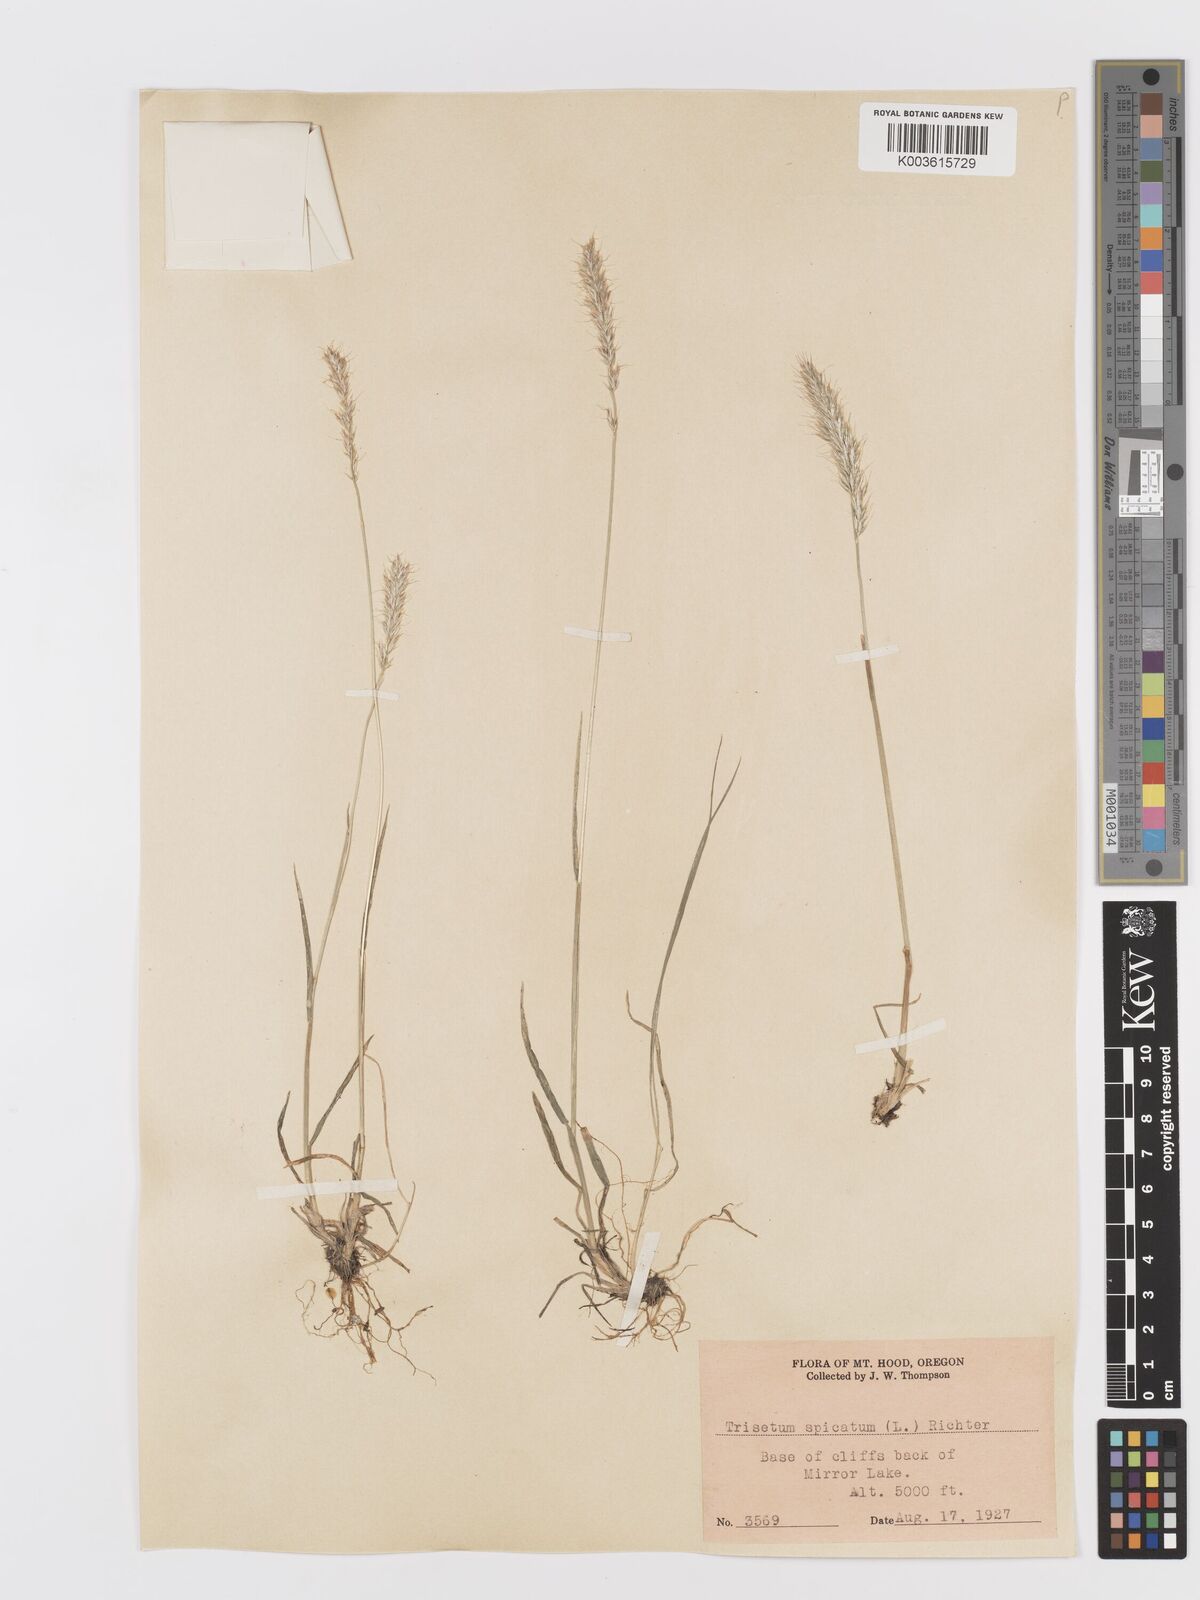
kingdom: Plantae
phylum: Tracheophyta
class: Liliopsida
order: Poales
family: Poaceae
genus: Koeleria
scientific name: Koeleria spicata
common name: Mountain trisetum
